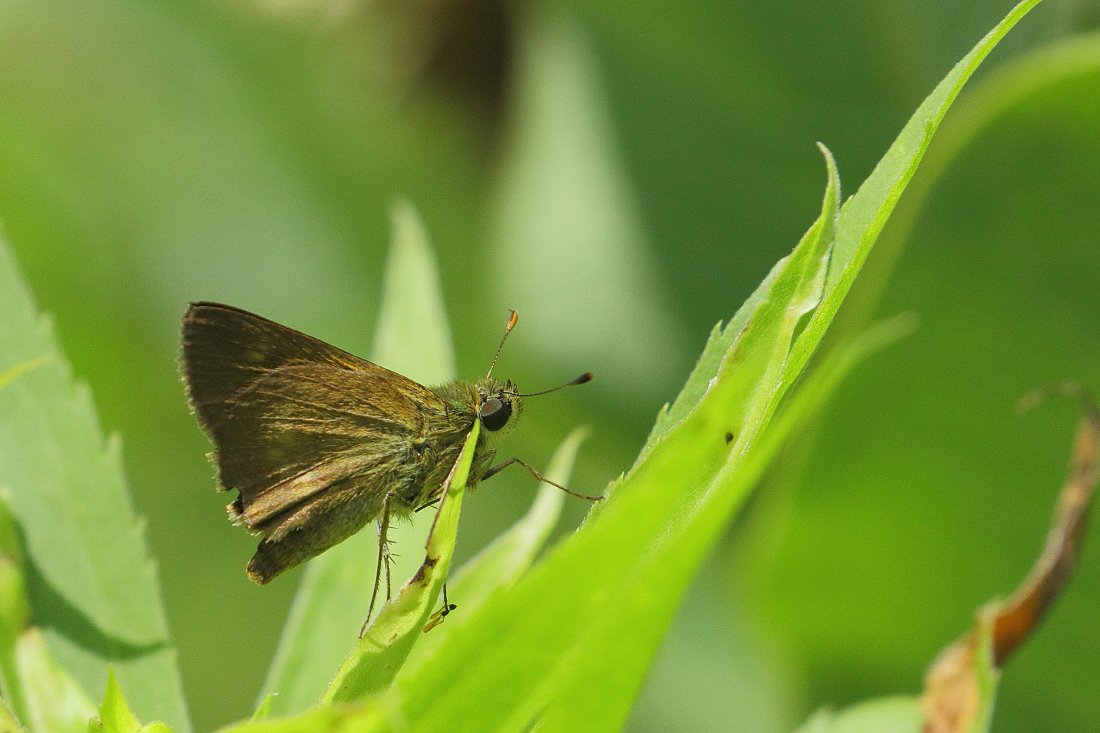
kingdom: Animalia
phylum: Arthropoda
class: Insecta
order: Lepidoptera
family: Hesperiidae
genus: Euphyes
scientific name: Euphyes vestris
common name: Dun Skipper
